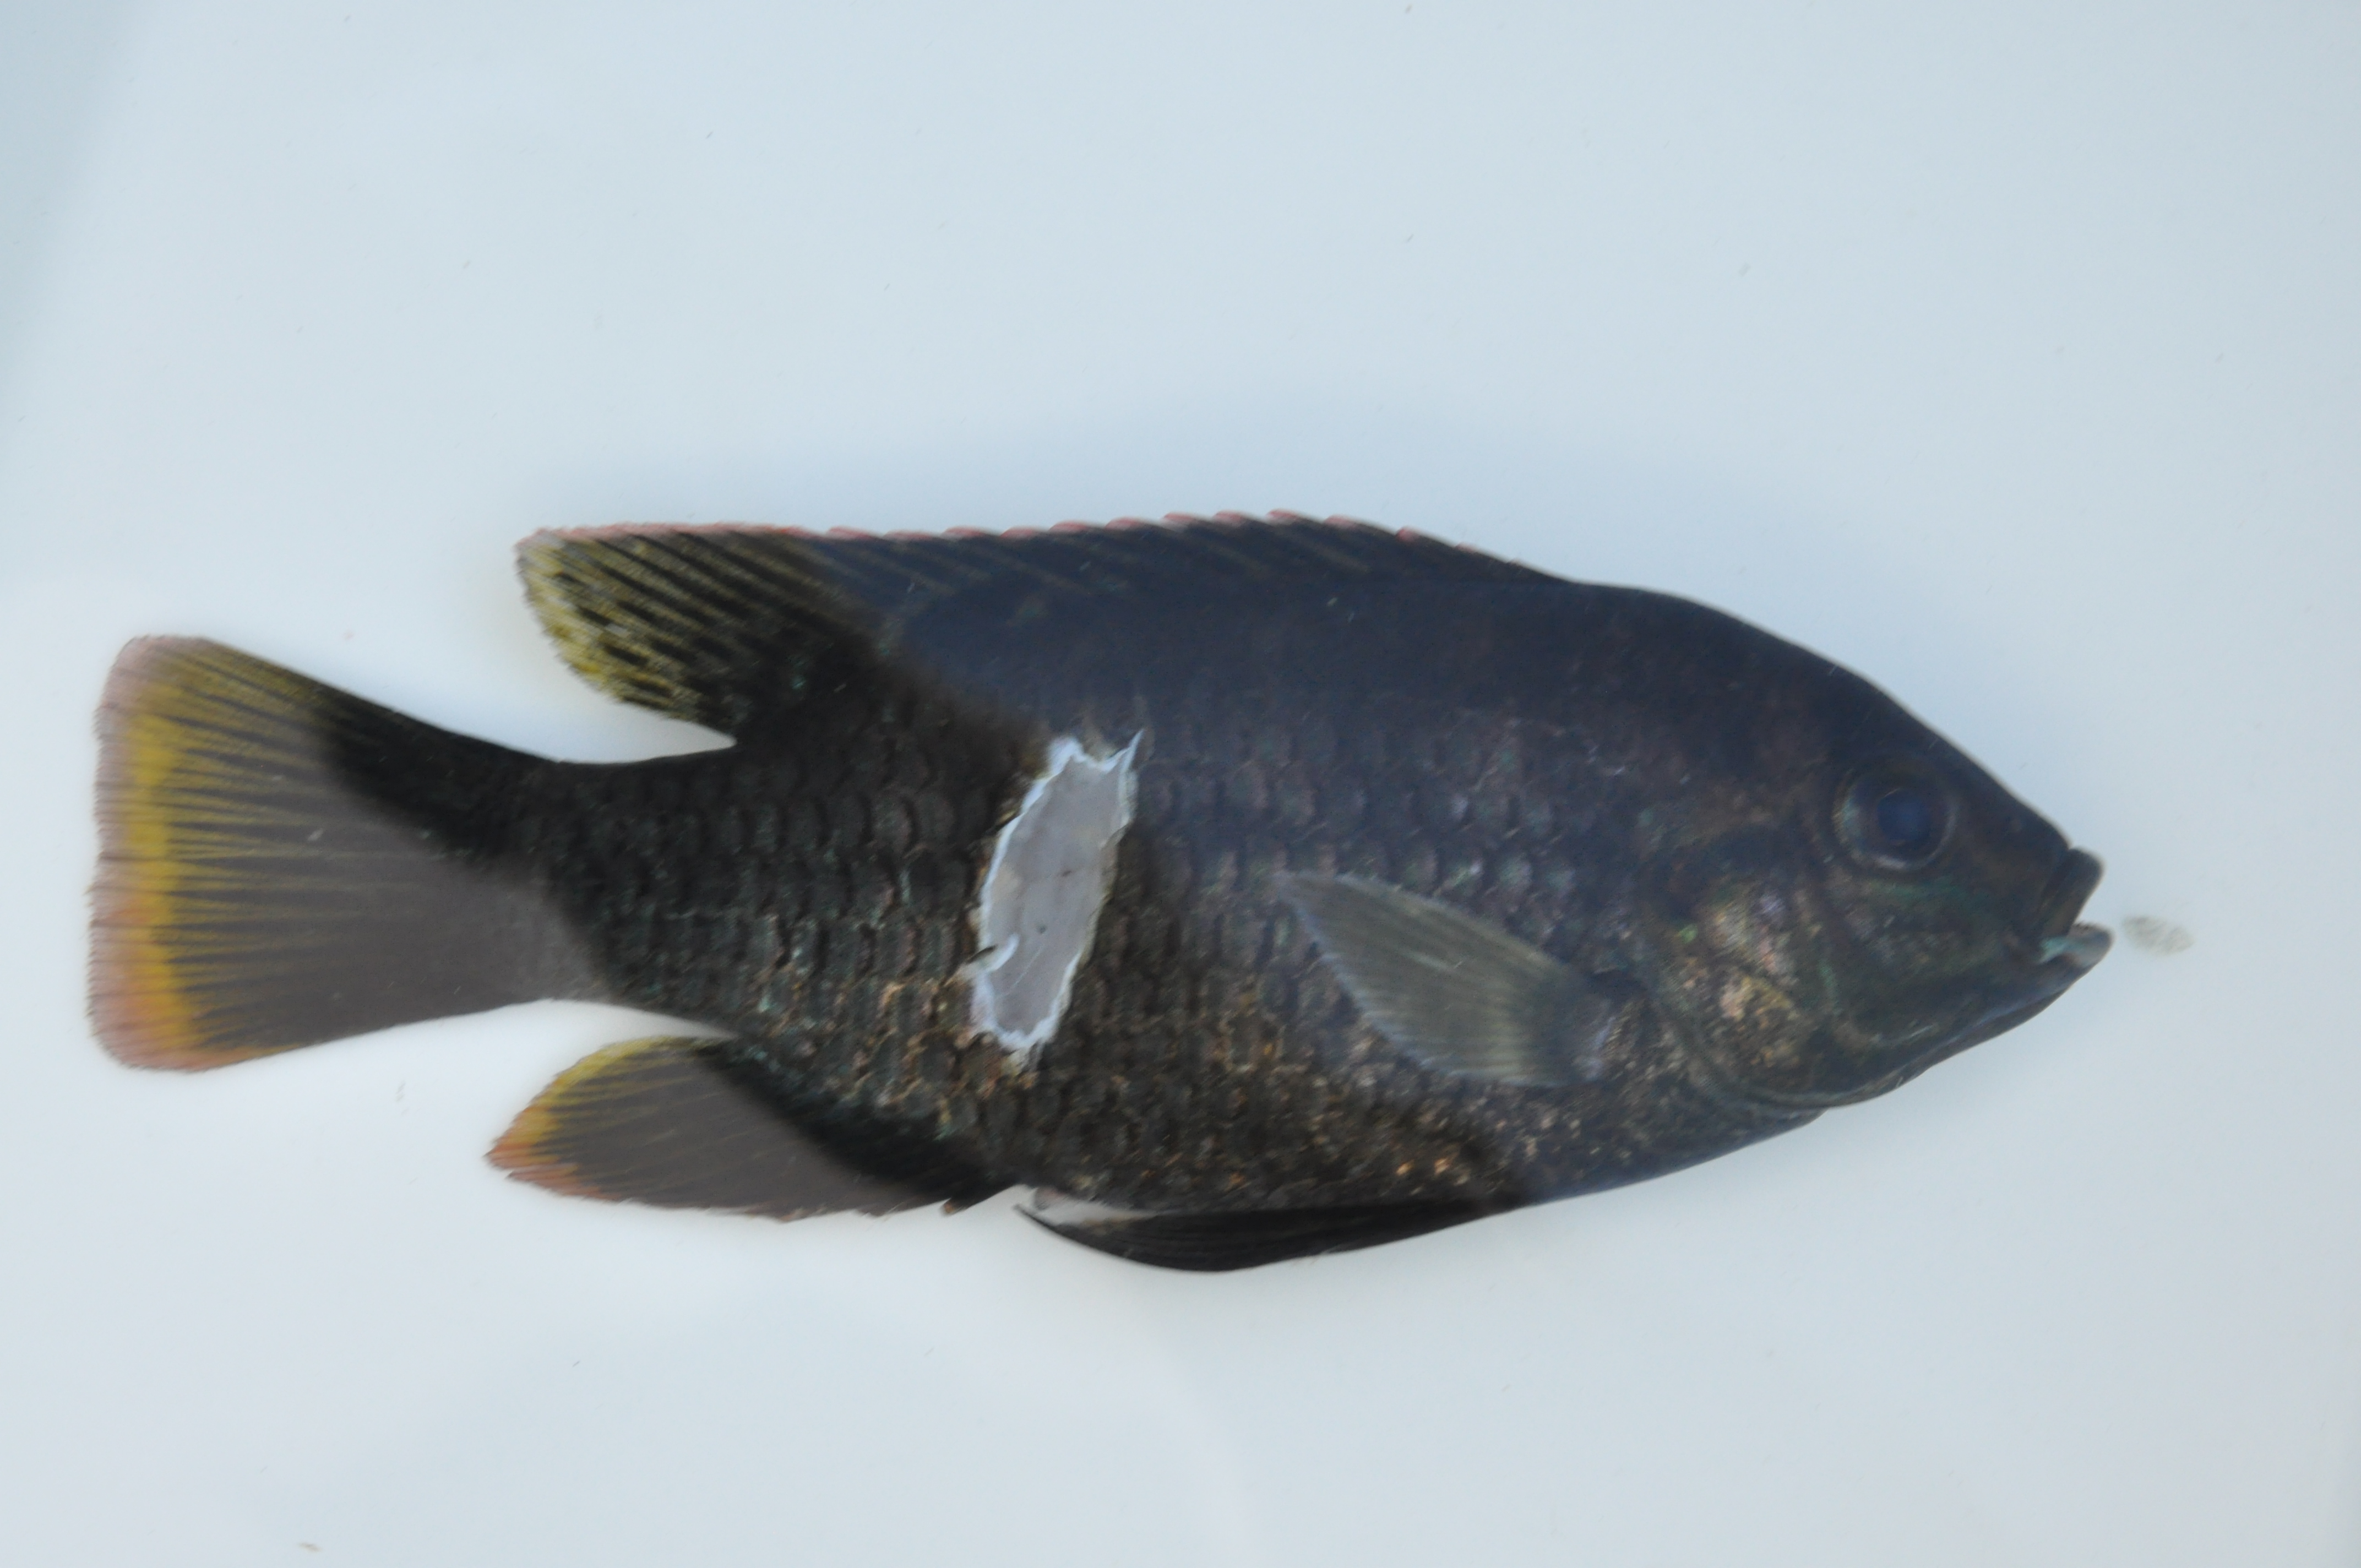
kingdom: Animalia
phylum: Chordata
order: Perciformes
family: Cichlidae
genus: Tilapia
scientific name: Tilapia sparrmanii
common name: Banded tilapia
